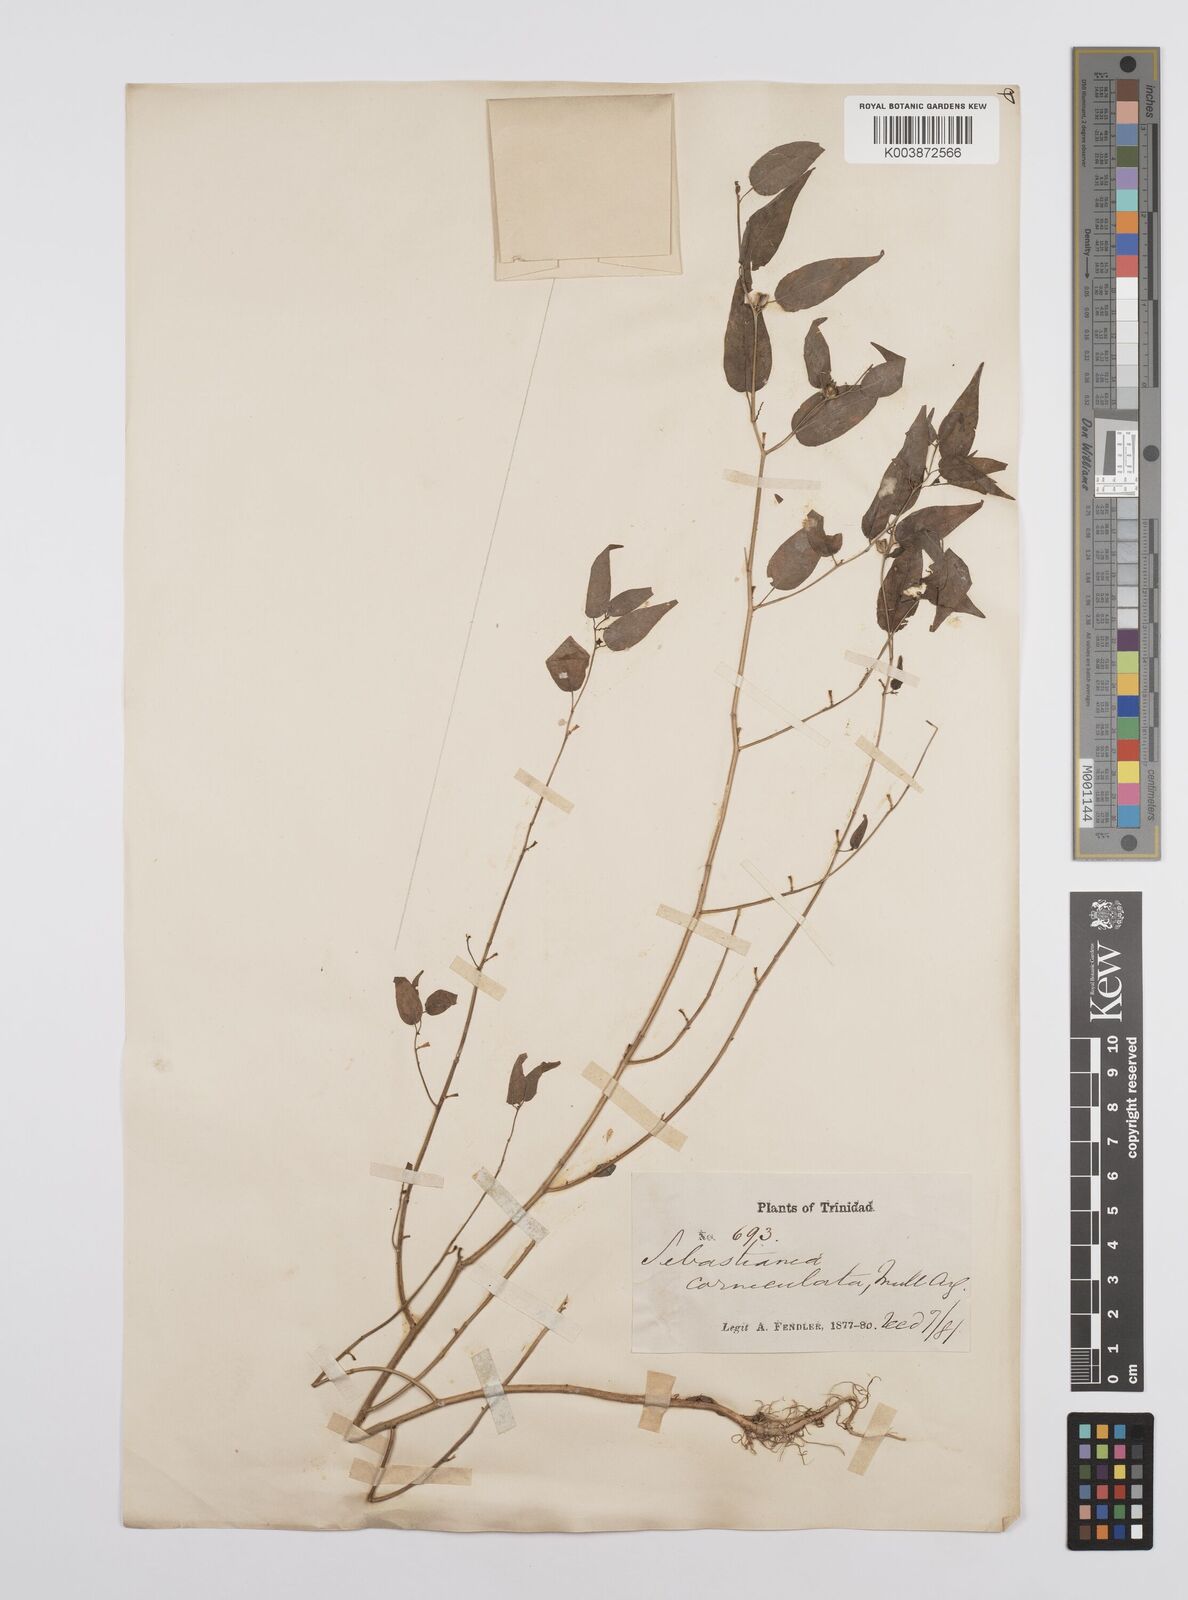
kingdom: Plantae
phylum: Tracheophyta
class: Magnoliopsida
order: Malpighiales
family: Euphorbiaceae
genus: Microstachys
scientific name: Microstachys corniculata
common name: Hato tejas
